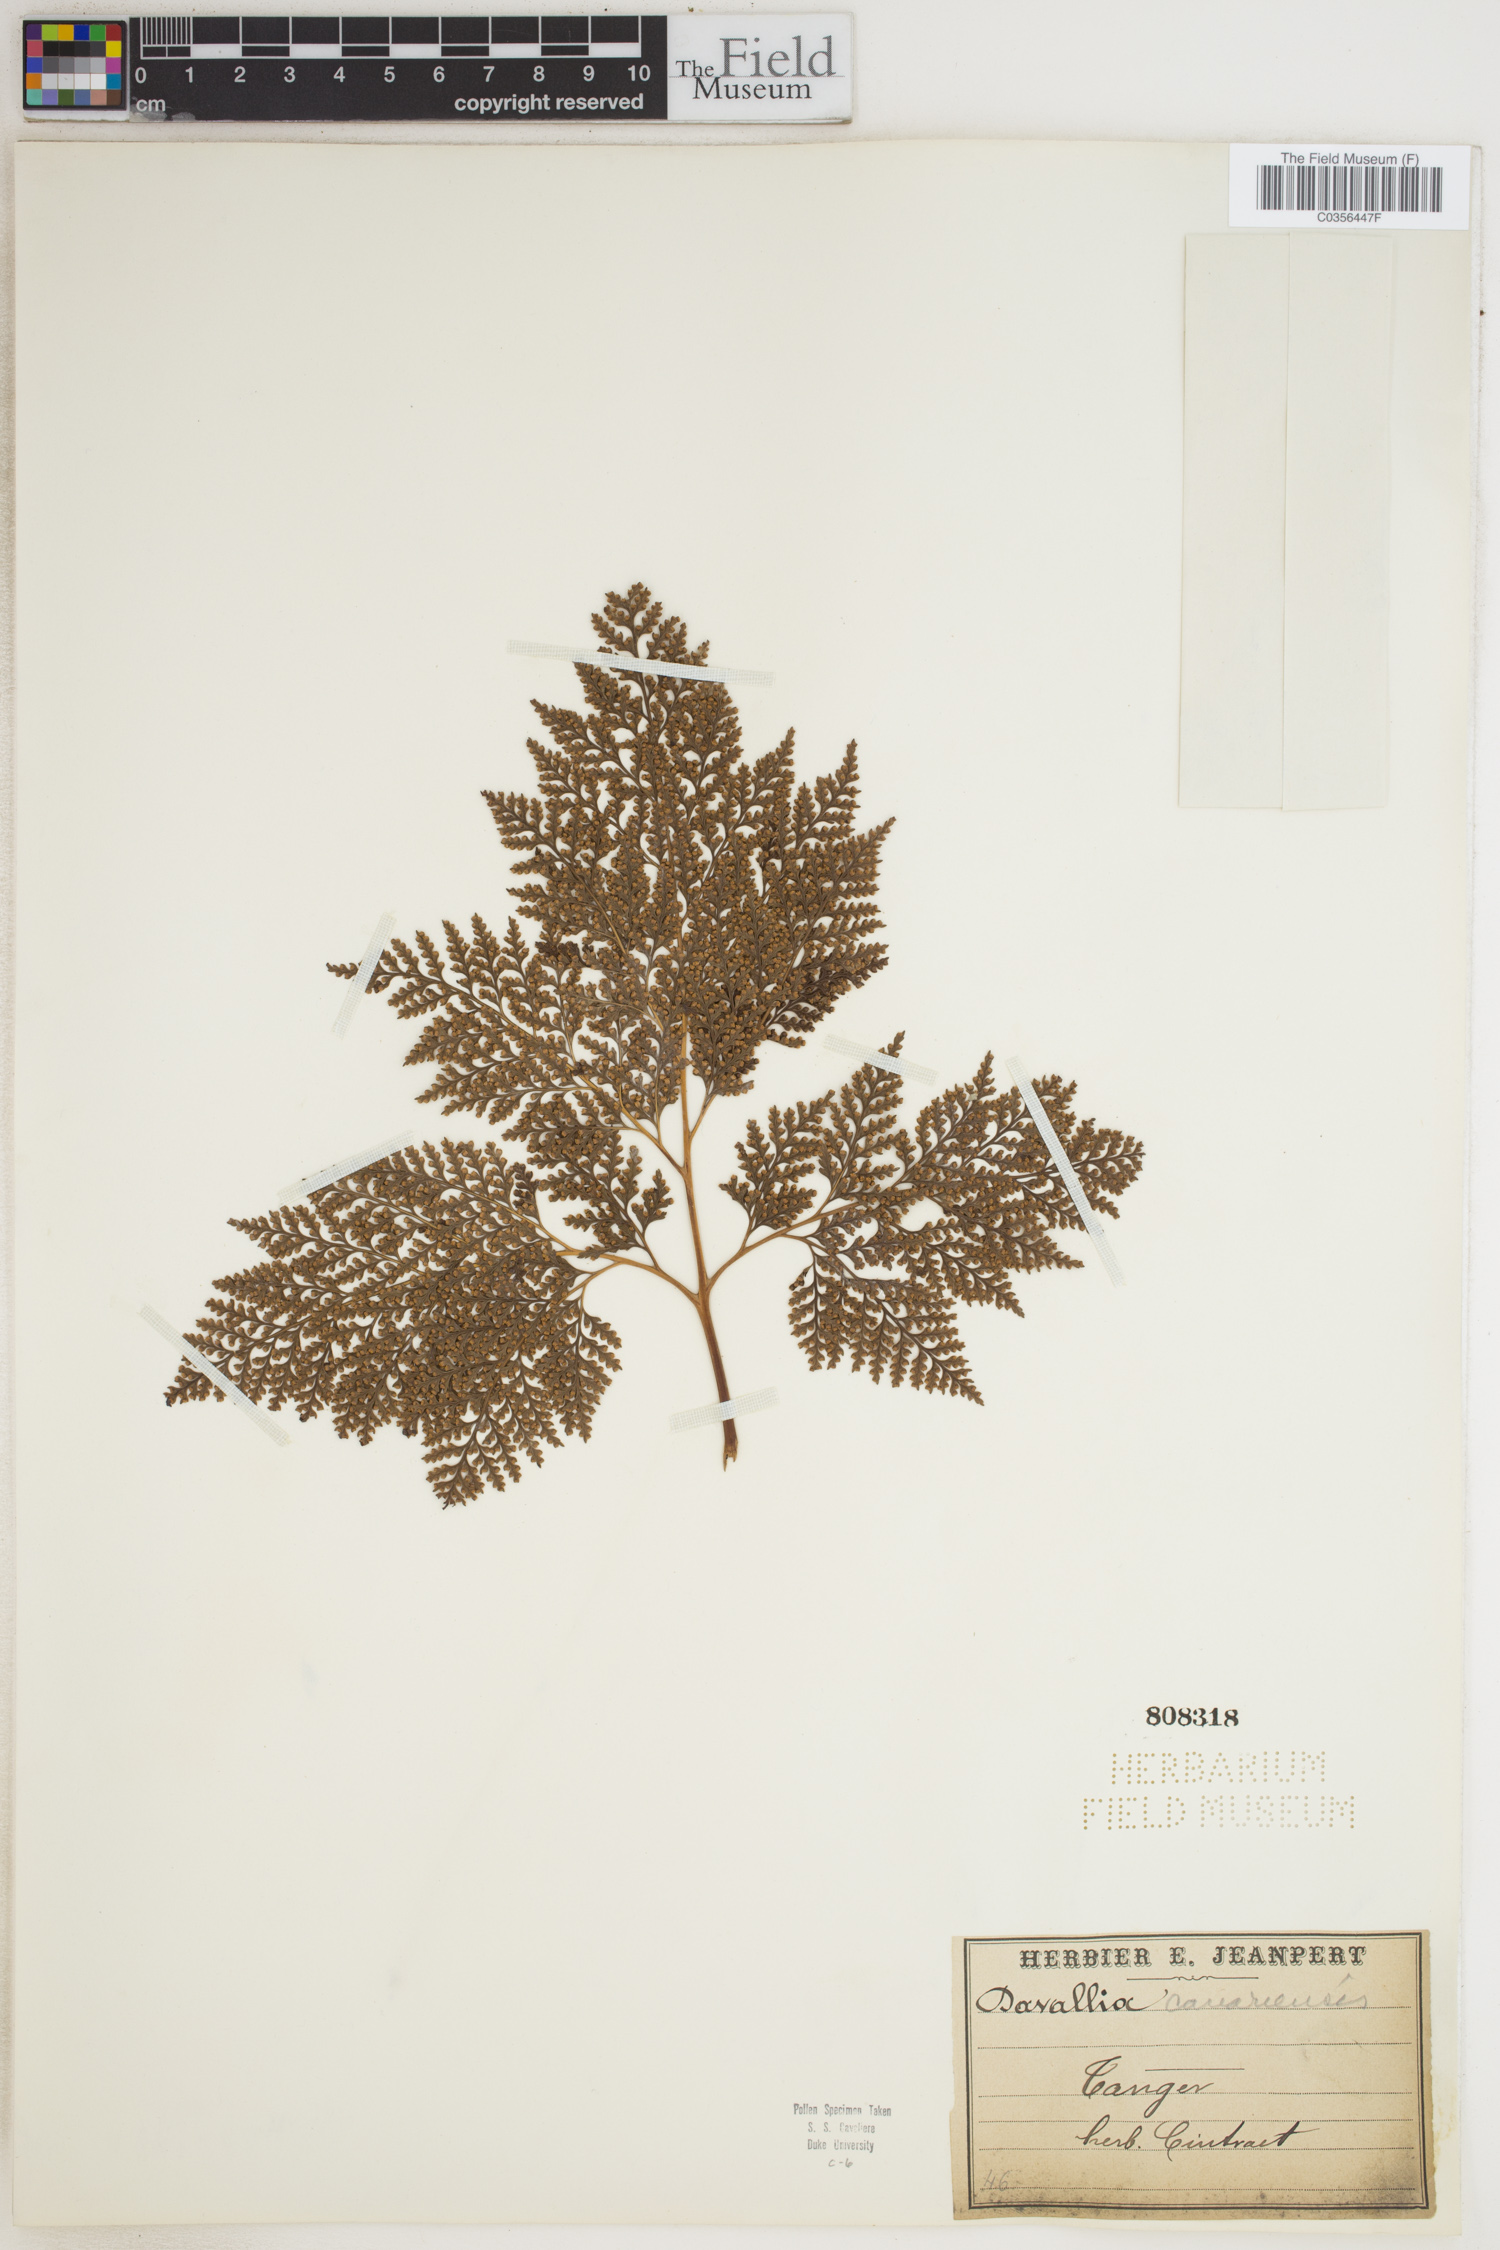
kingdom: Plantae
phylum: Tracheophyta
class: Polypodiopsida
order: Polypodiales
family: Davalliaceae
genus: Davallia
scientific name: Davallia canariensis
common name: Hare's-foot fern
